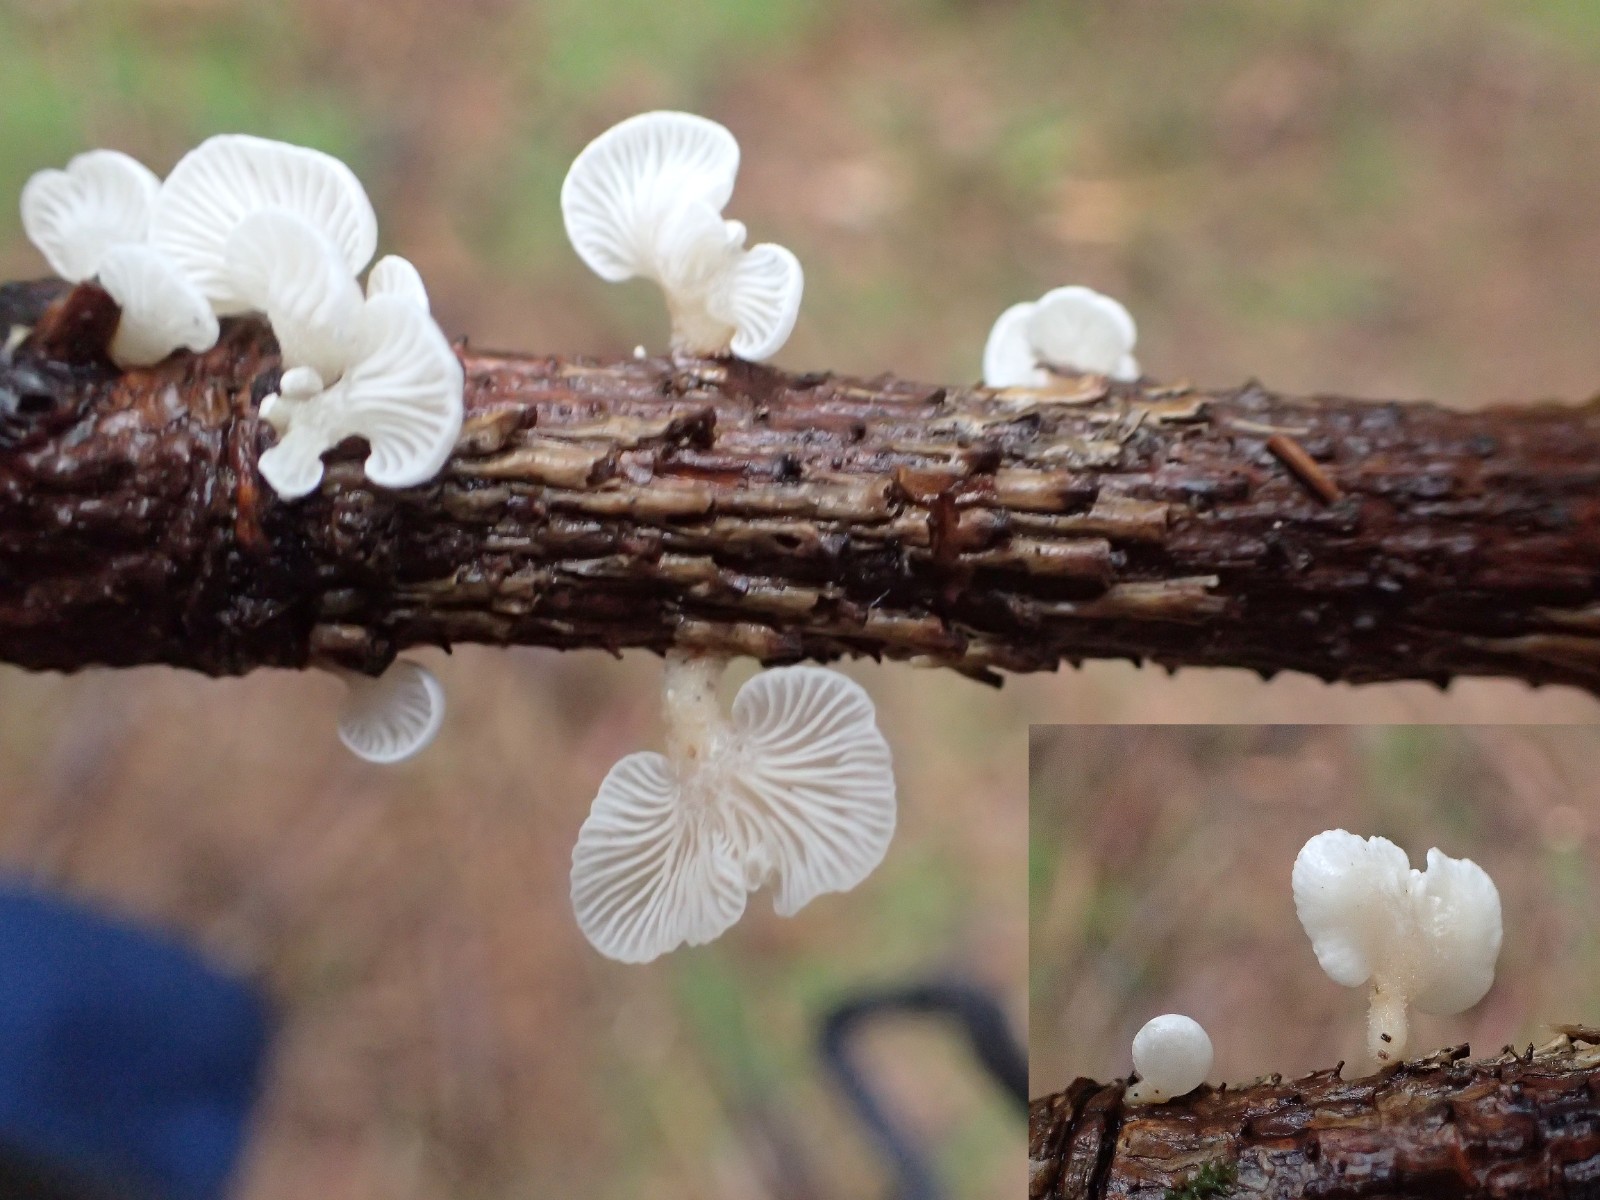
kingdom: Fungi
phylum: Basidiomycota
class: Agaricomycetes
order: Agaricales
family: Mycenaceae
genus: Panellus
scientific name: Panellus mitis
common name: mild epaulethat
